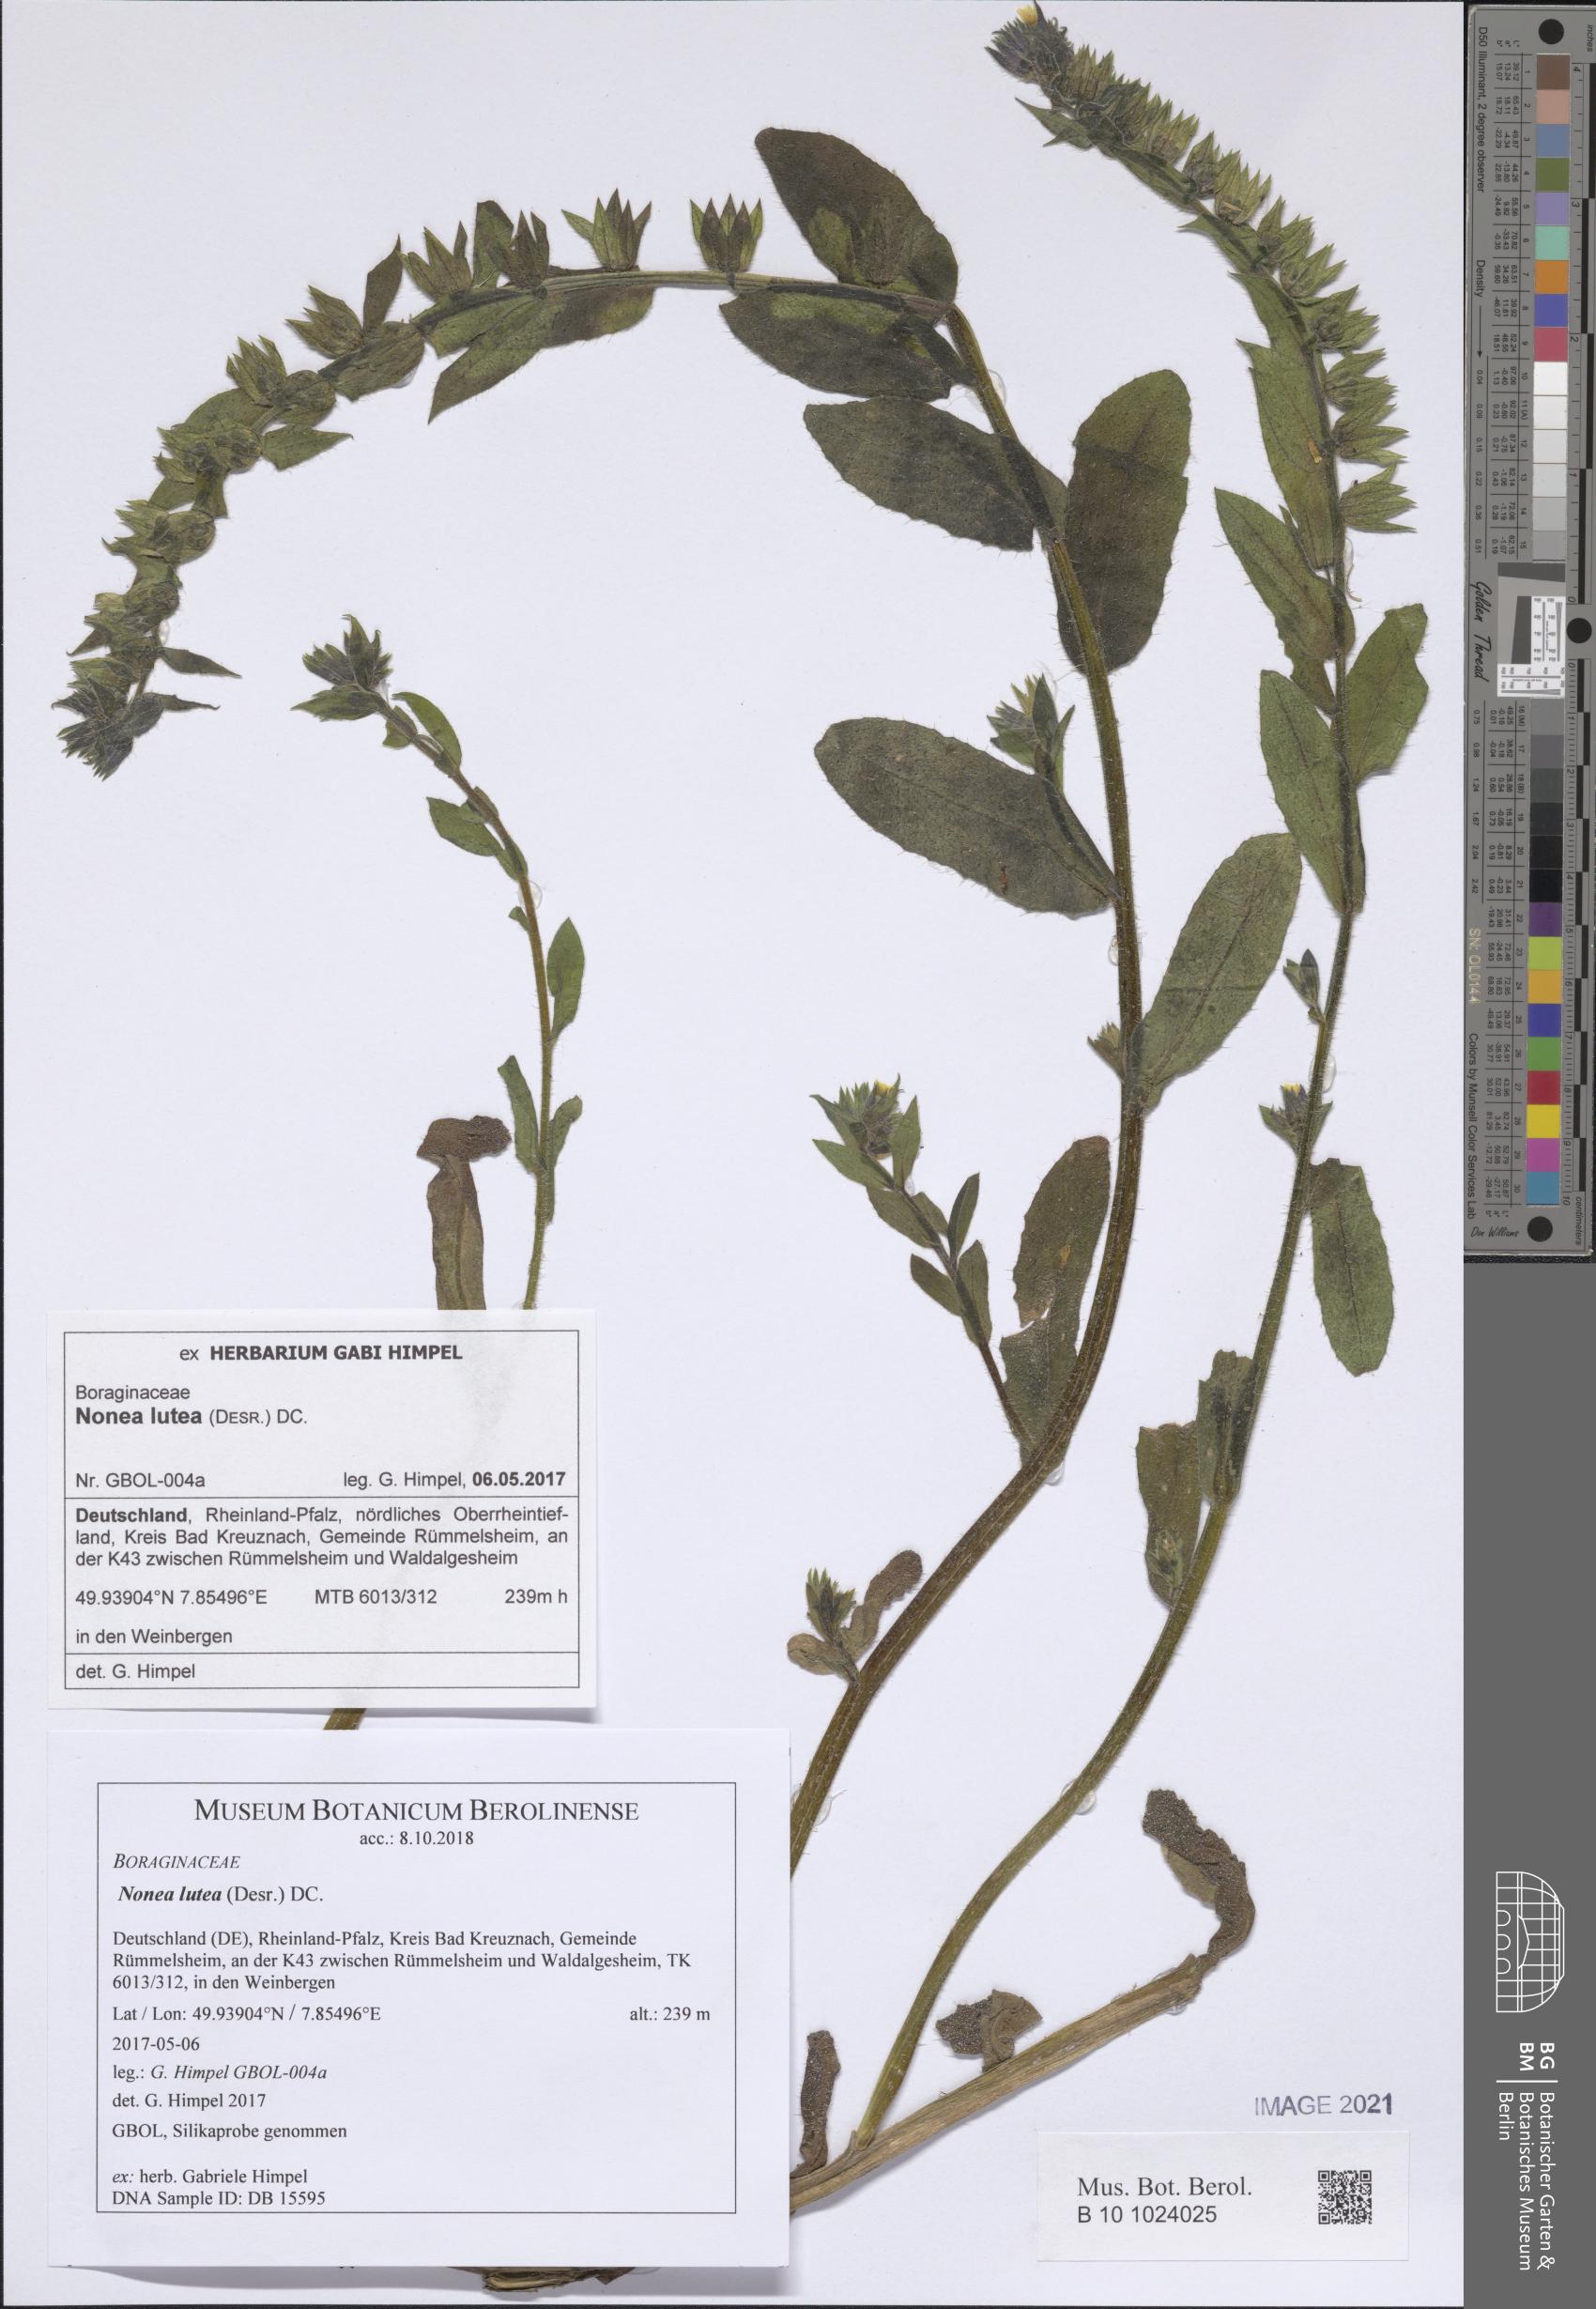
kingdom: Plantae
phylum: Tracheophyta
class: Magnoliopsida
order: Boraginales
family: Boraginaceae
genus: Nonea
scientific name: Nonea lutea
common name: Yellow nonea
